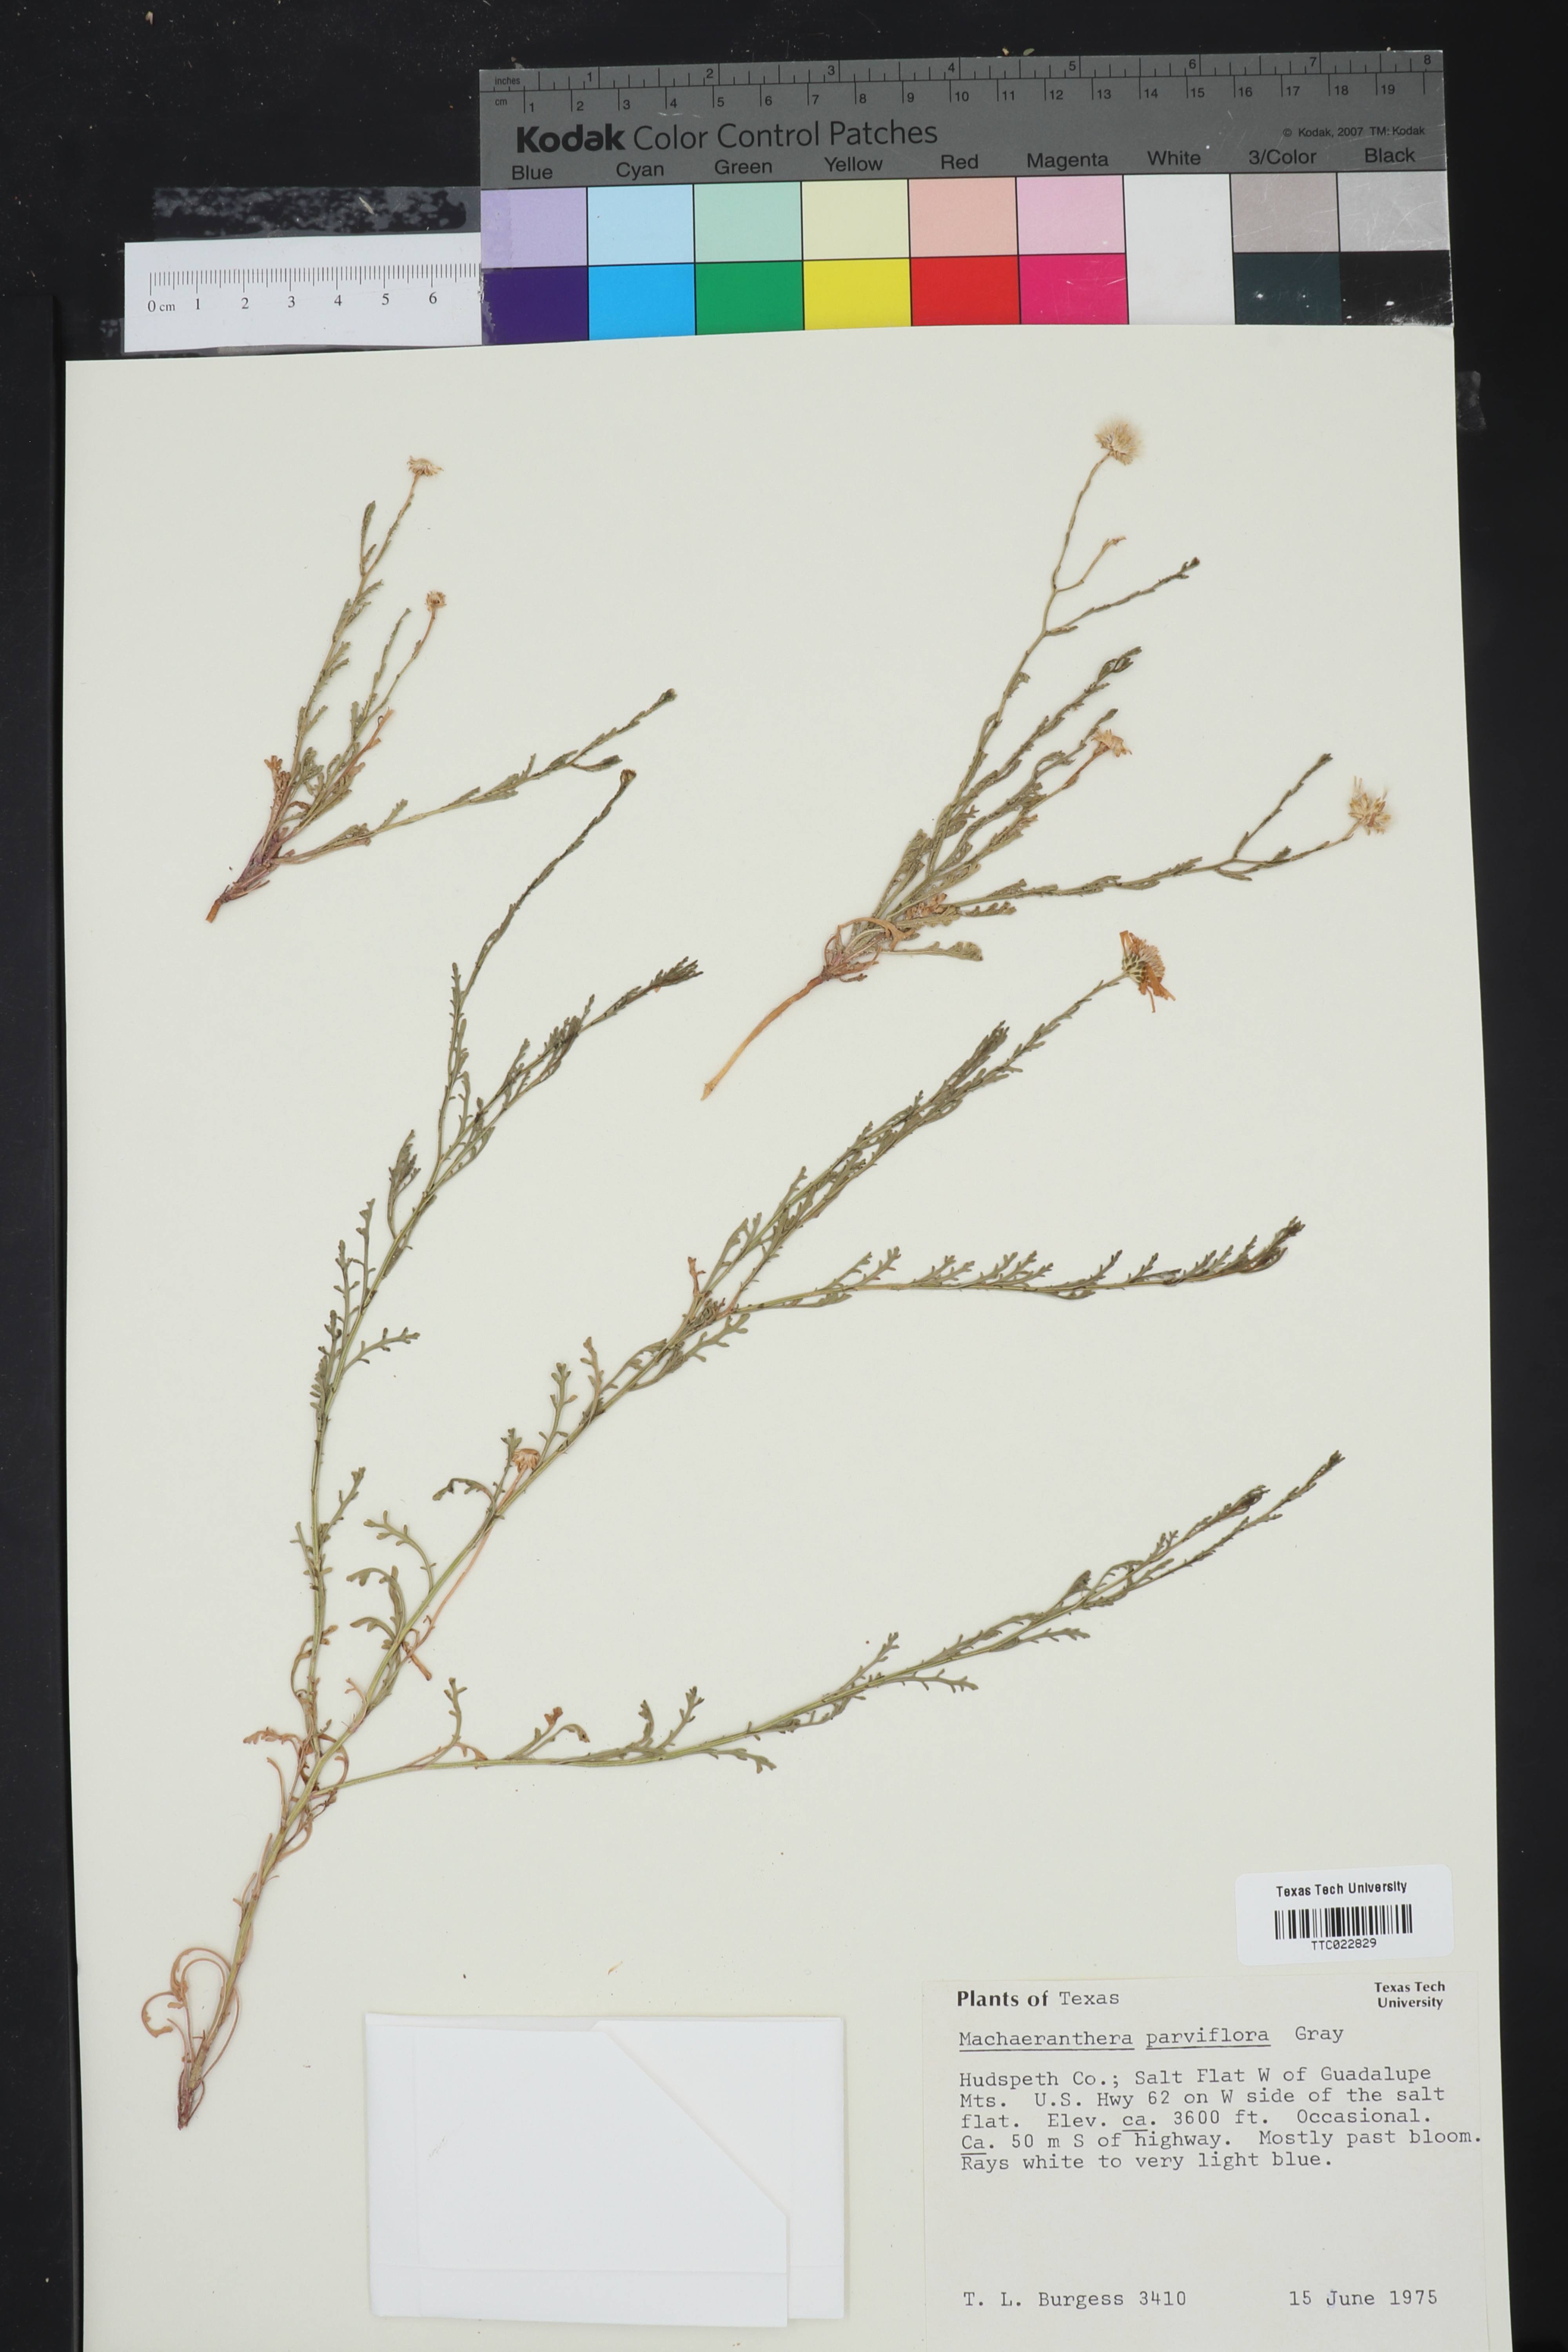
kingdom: Plantae
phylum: Tracheophyta
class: Magnoliopsida
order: Asterales
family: Asteraceae
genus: Leucosyris
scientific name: Leucosyris parviflora
